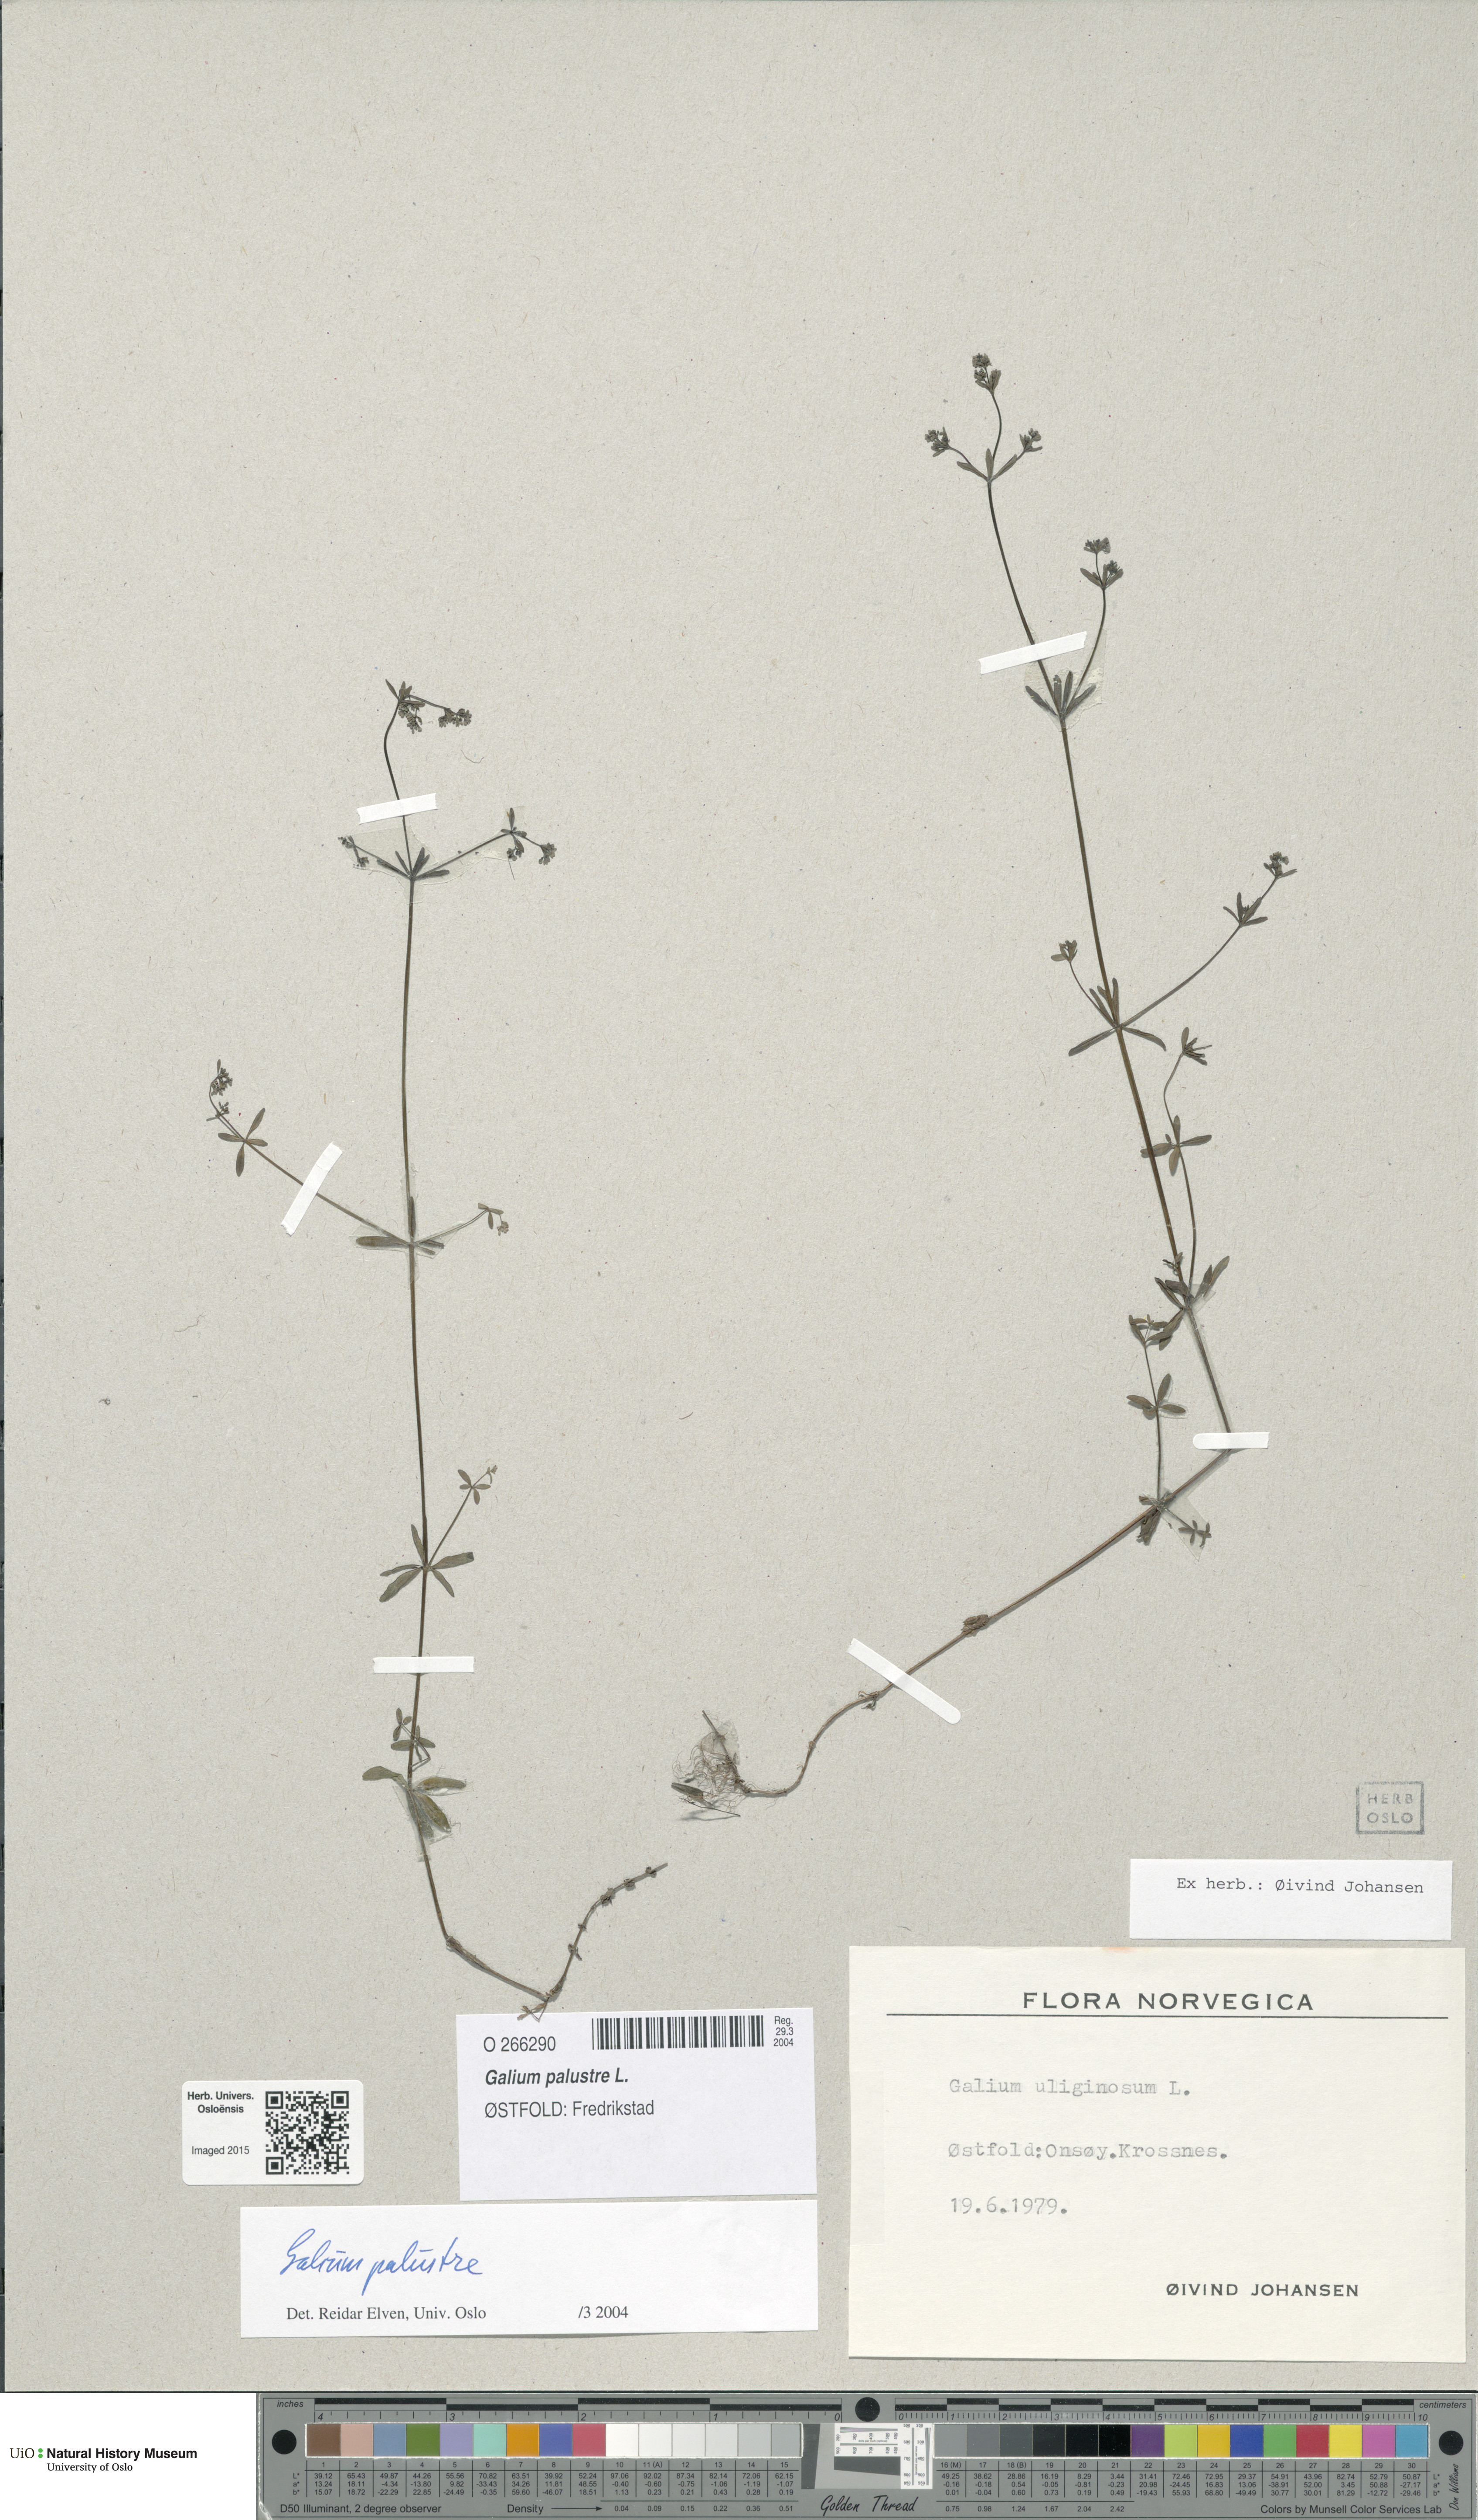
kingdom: Plantae
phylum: Tracheophyta
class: Magnoliopsida
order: Gentianales
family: Rubiaceae
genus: Galium
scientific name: Galium palustre
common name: Common marsh-bedstraw
